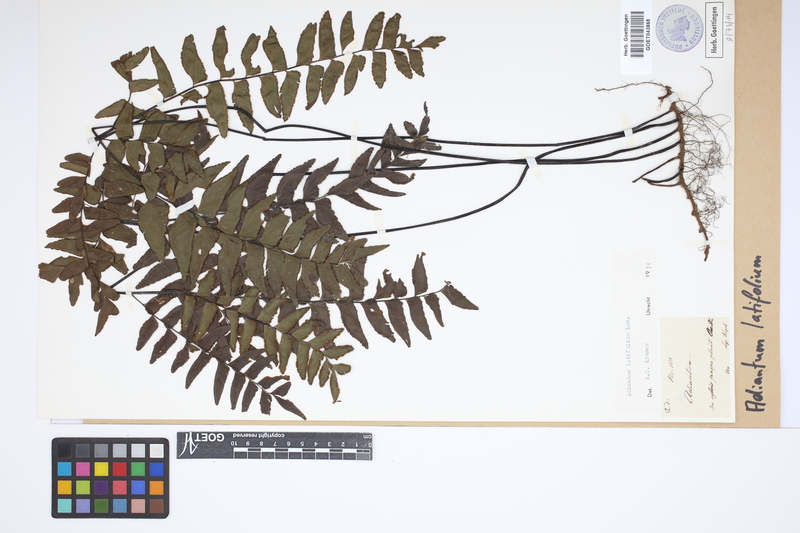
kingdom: Plantae
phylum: Tracheophyta
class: Polypodiopsida
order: Polypodiales
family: Pteridaceae
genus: Adiantum
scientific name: Adiantum latifolium
